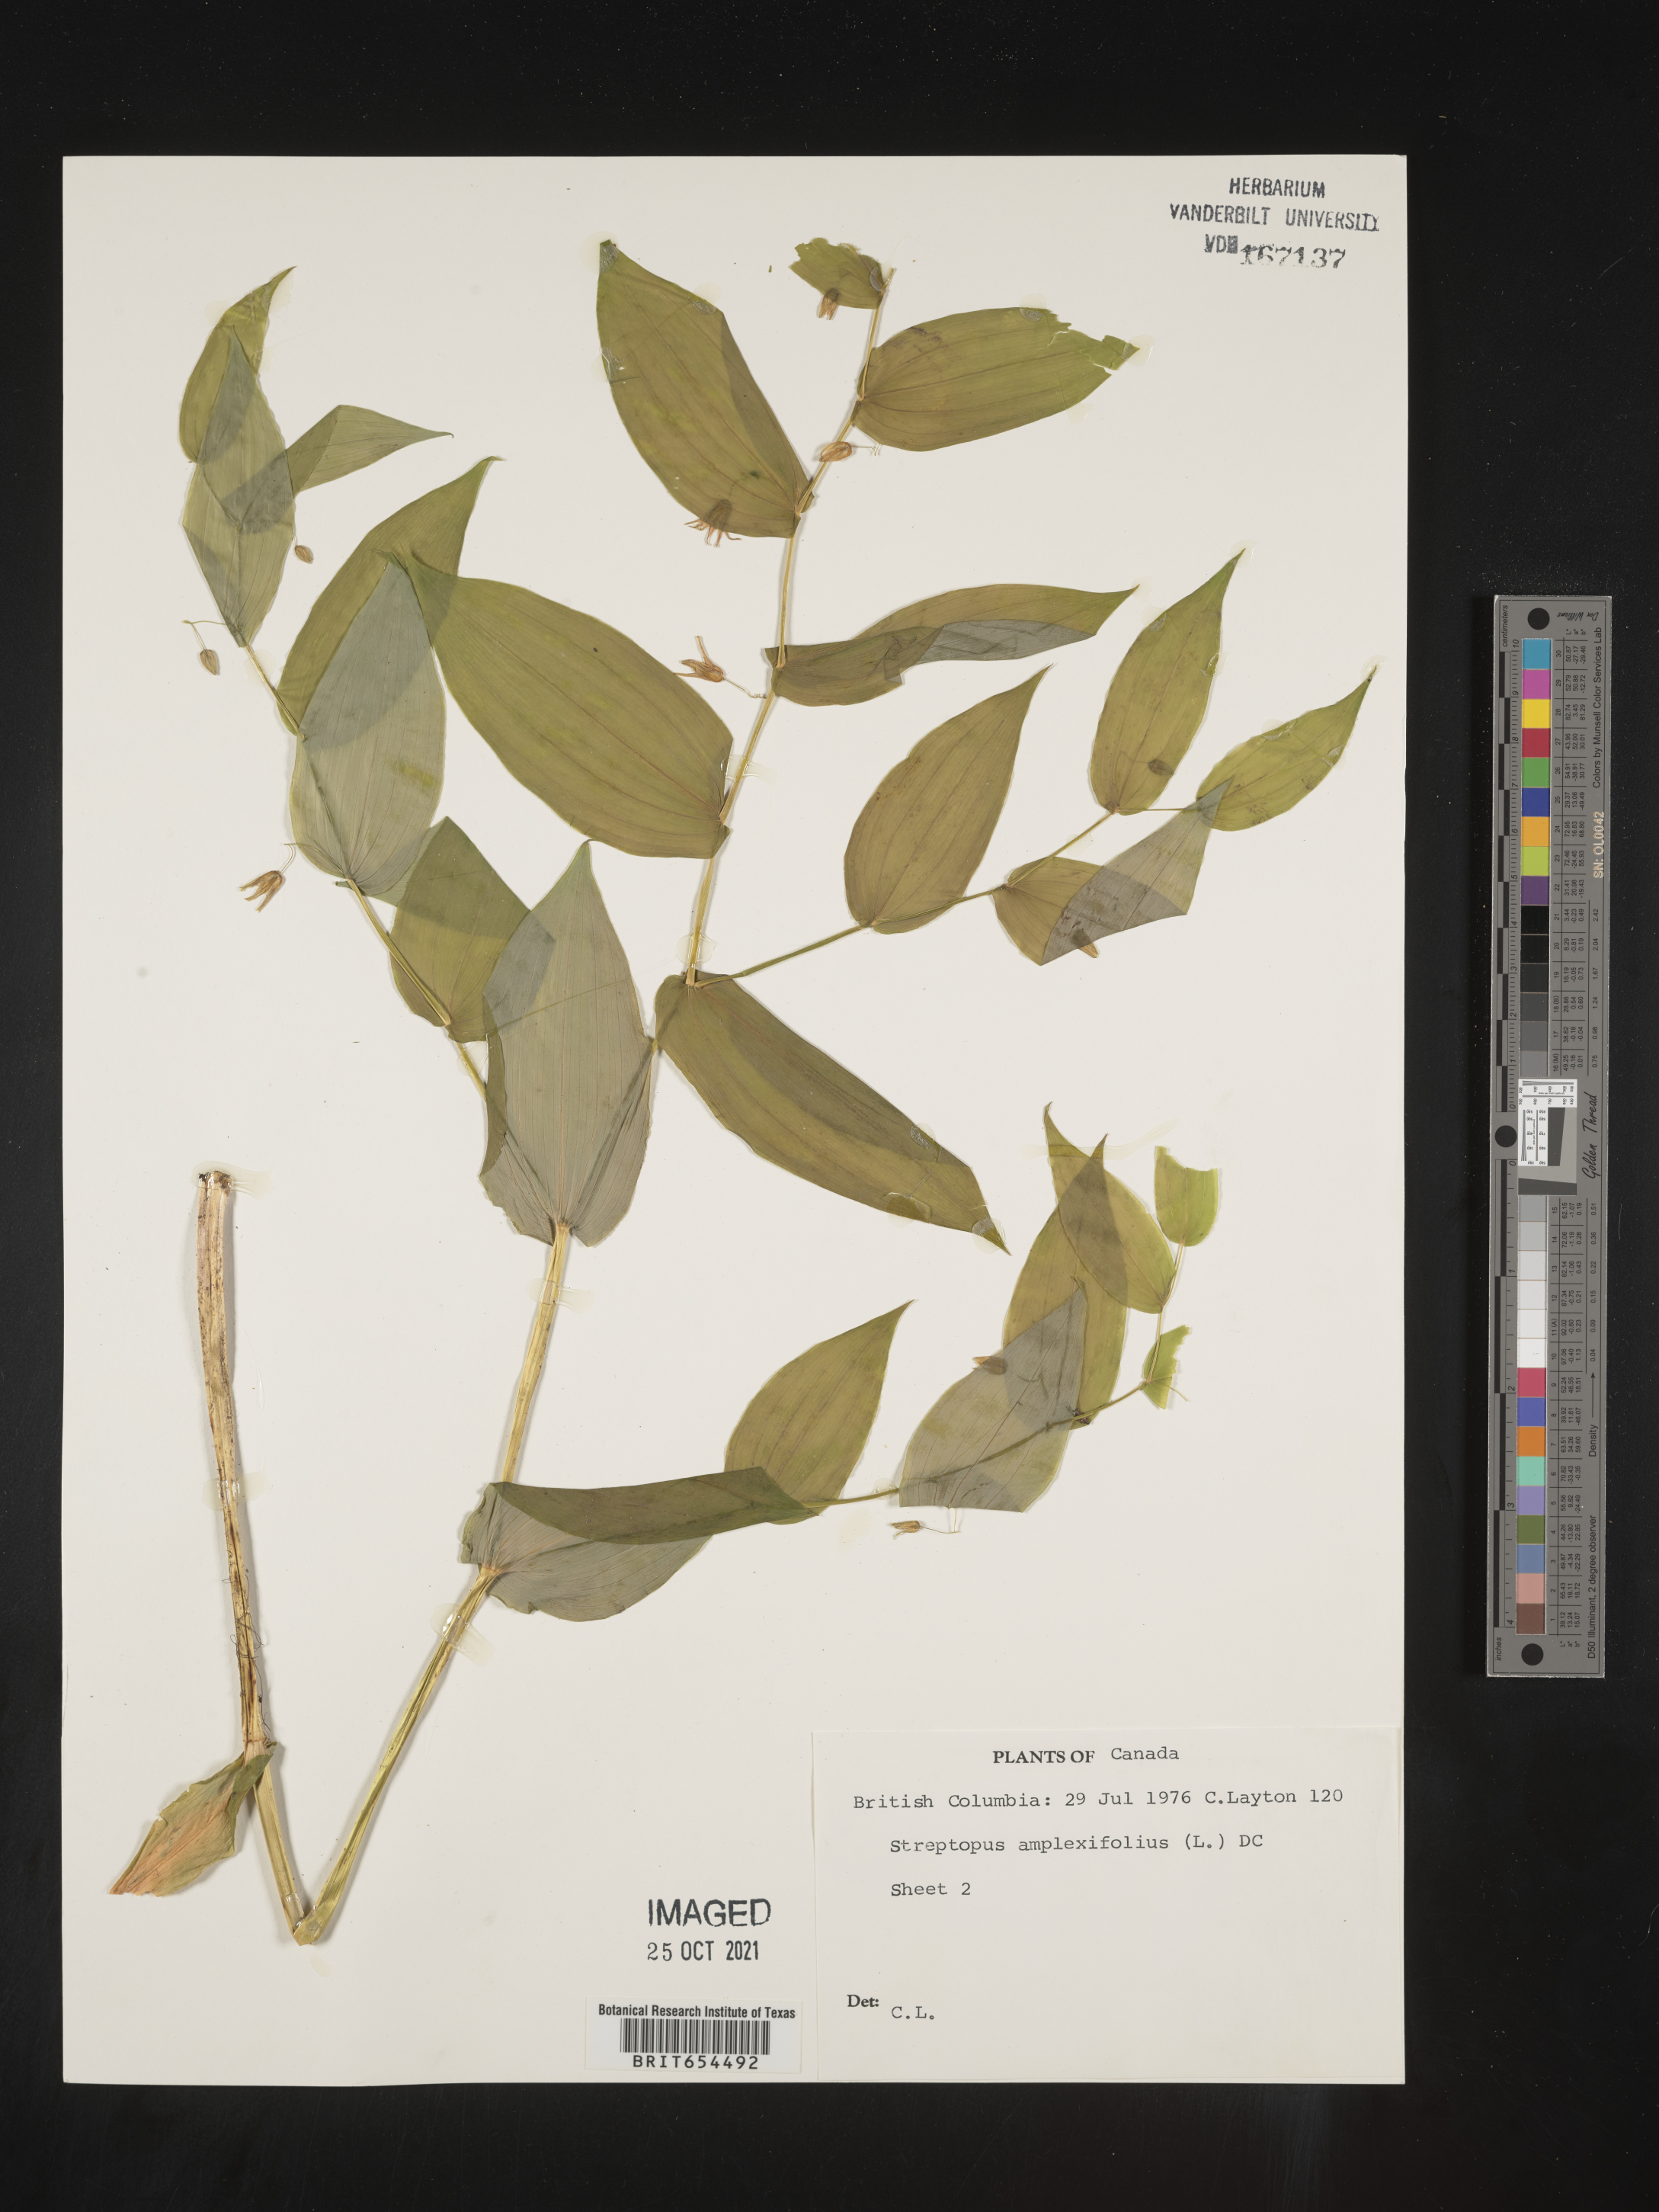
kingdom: Plantae
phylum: Tracheophyta
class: Liliopsida
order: Liliales
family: Liliaceae
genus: Streptopus
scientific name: Streptopus
